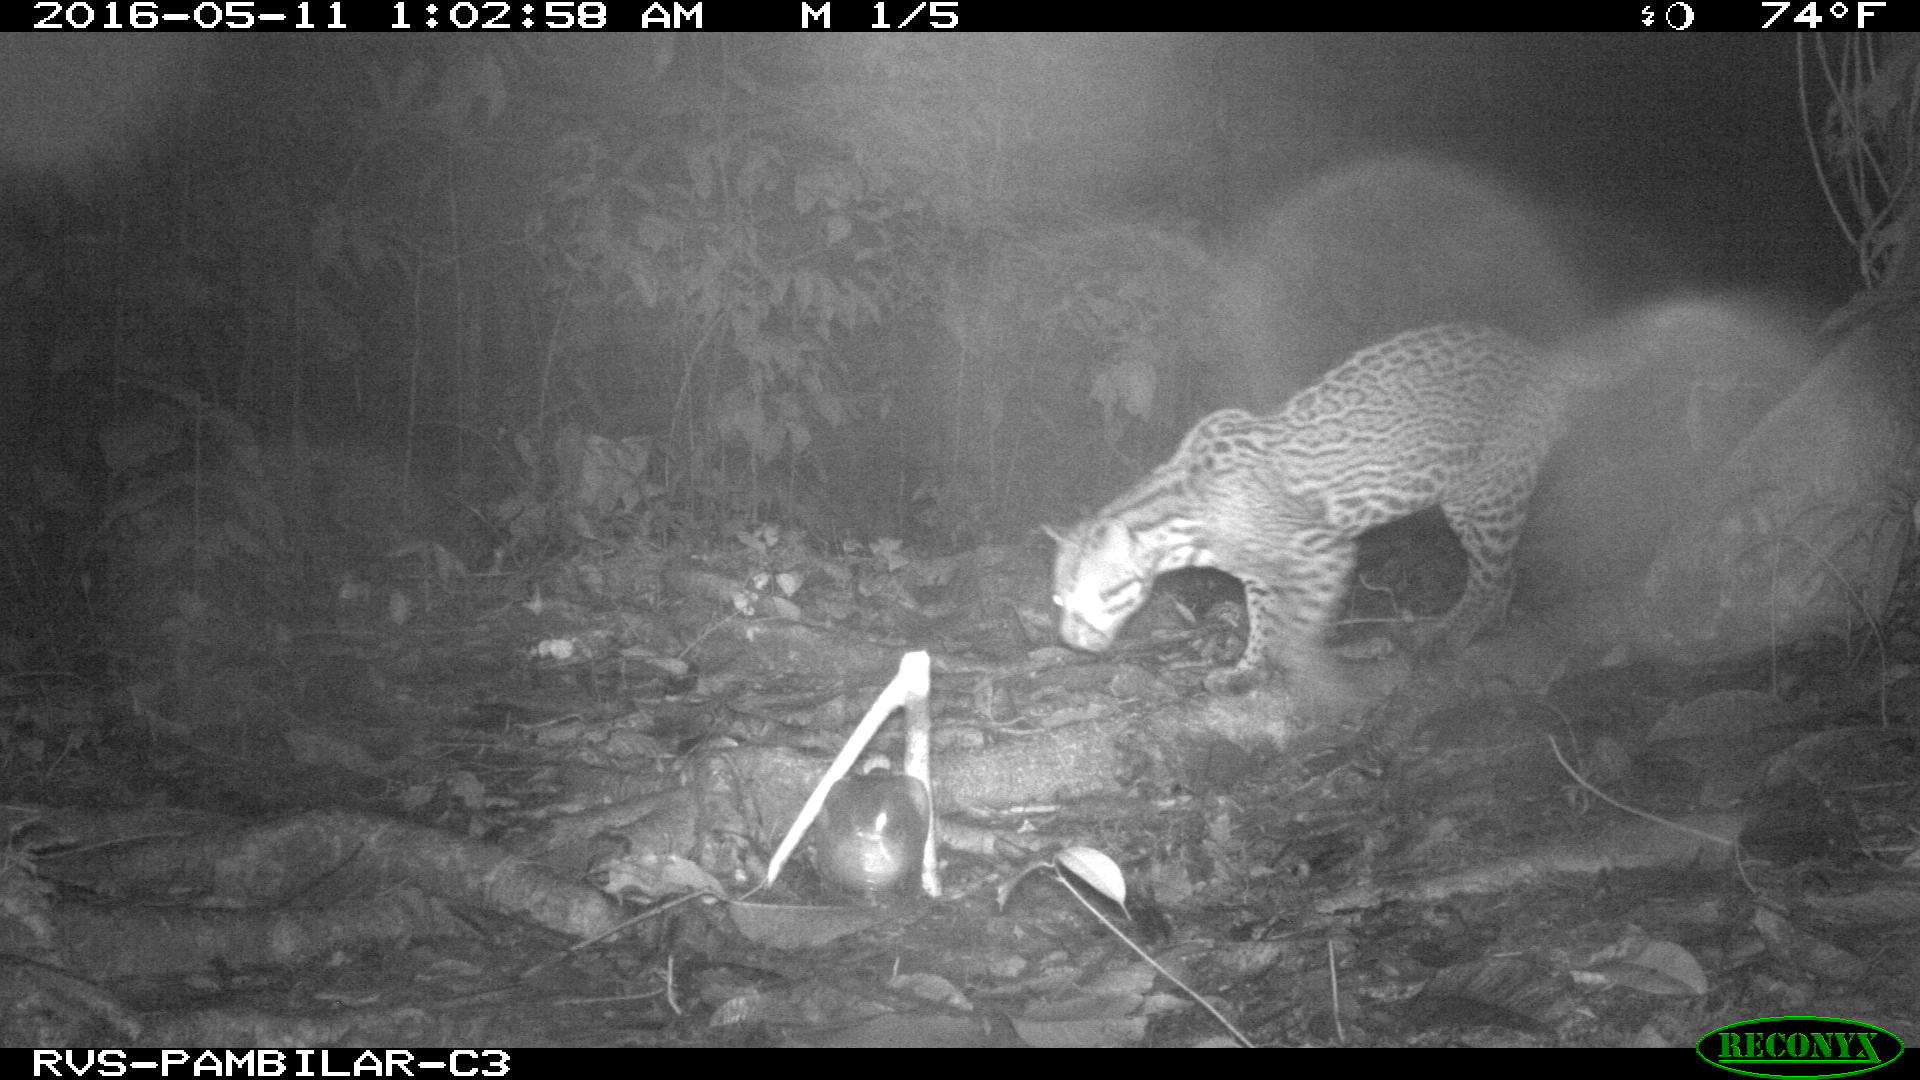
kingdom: Animalia
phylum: Chordata
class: Mammalia
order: Carnivora
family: Felidae
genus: Leopardus
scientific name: Leopardus pardalis
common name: Ocelot
